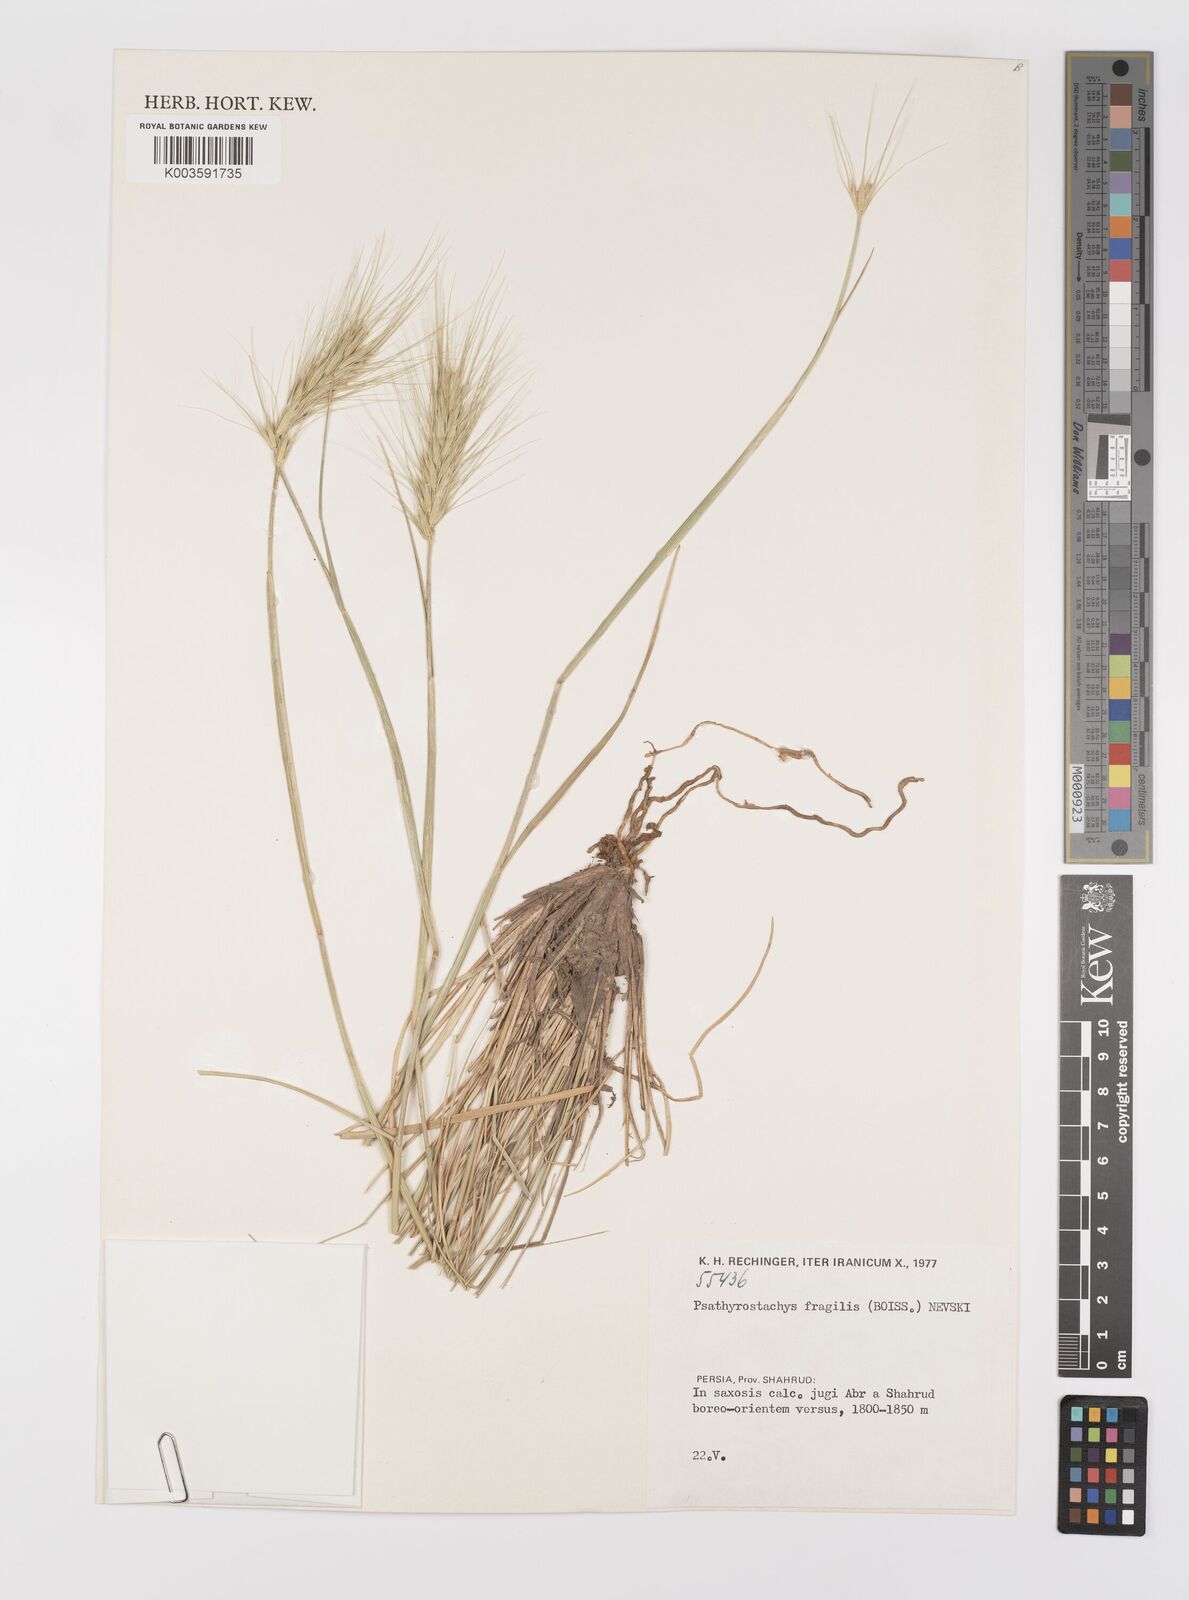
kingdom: Plantae
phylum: Tracheophyta
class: Liliopsida
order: Poales
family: Poaceae
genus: Psathyrostachys
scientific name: Psathyrostachys fragilis
